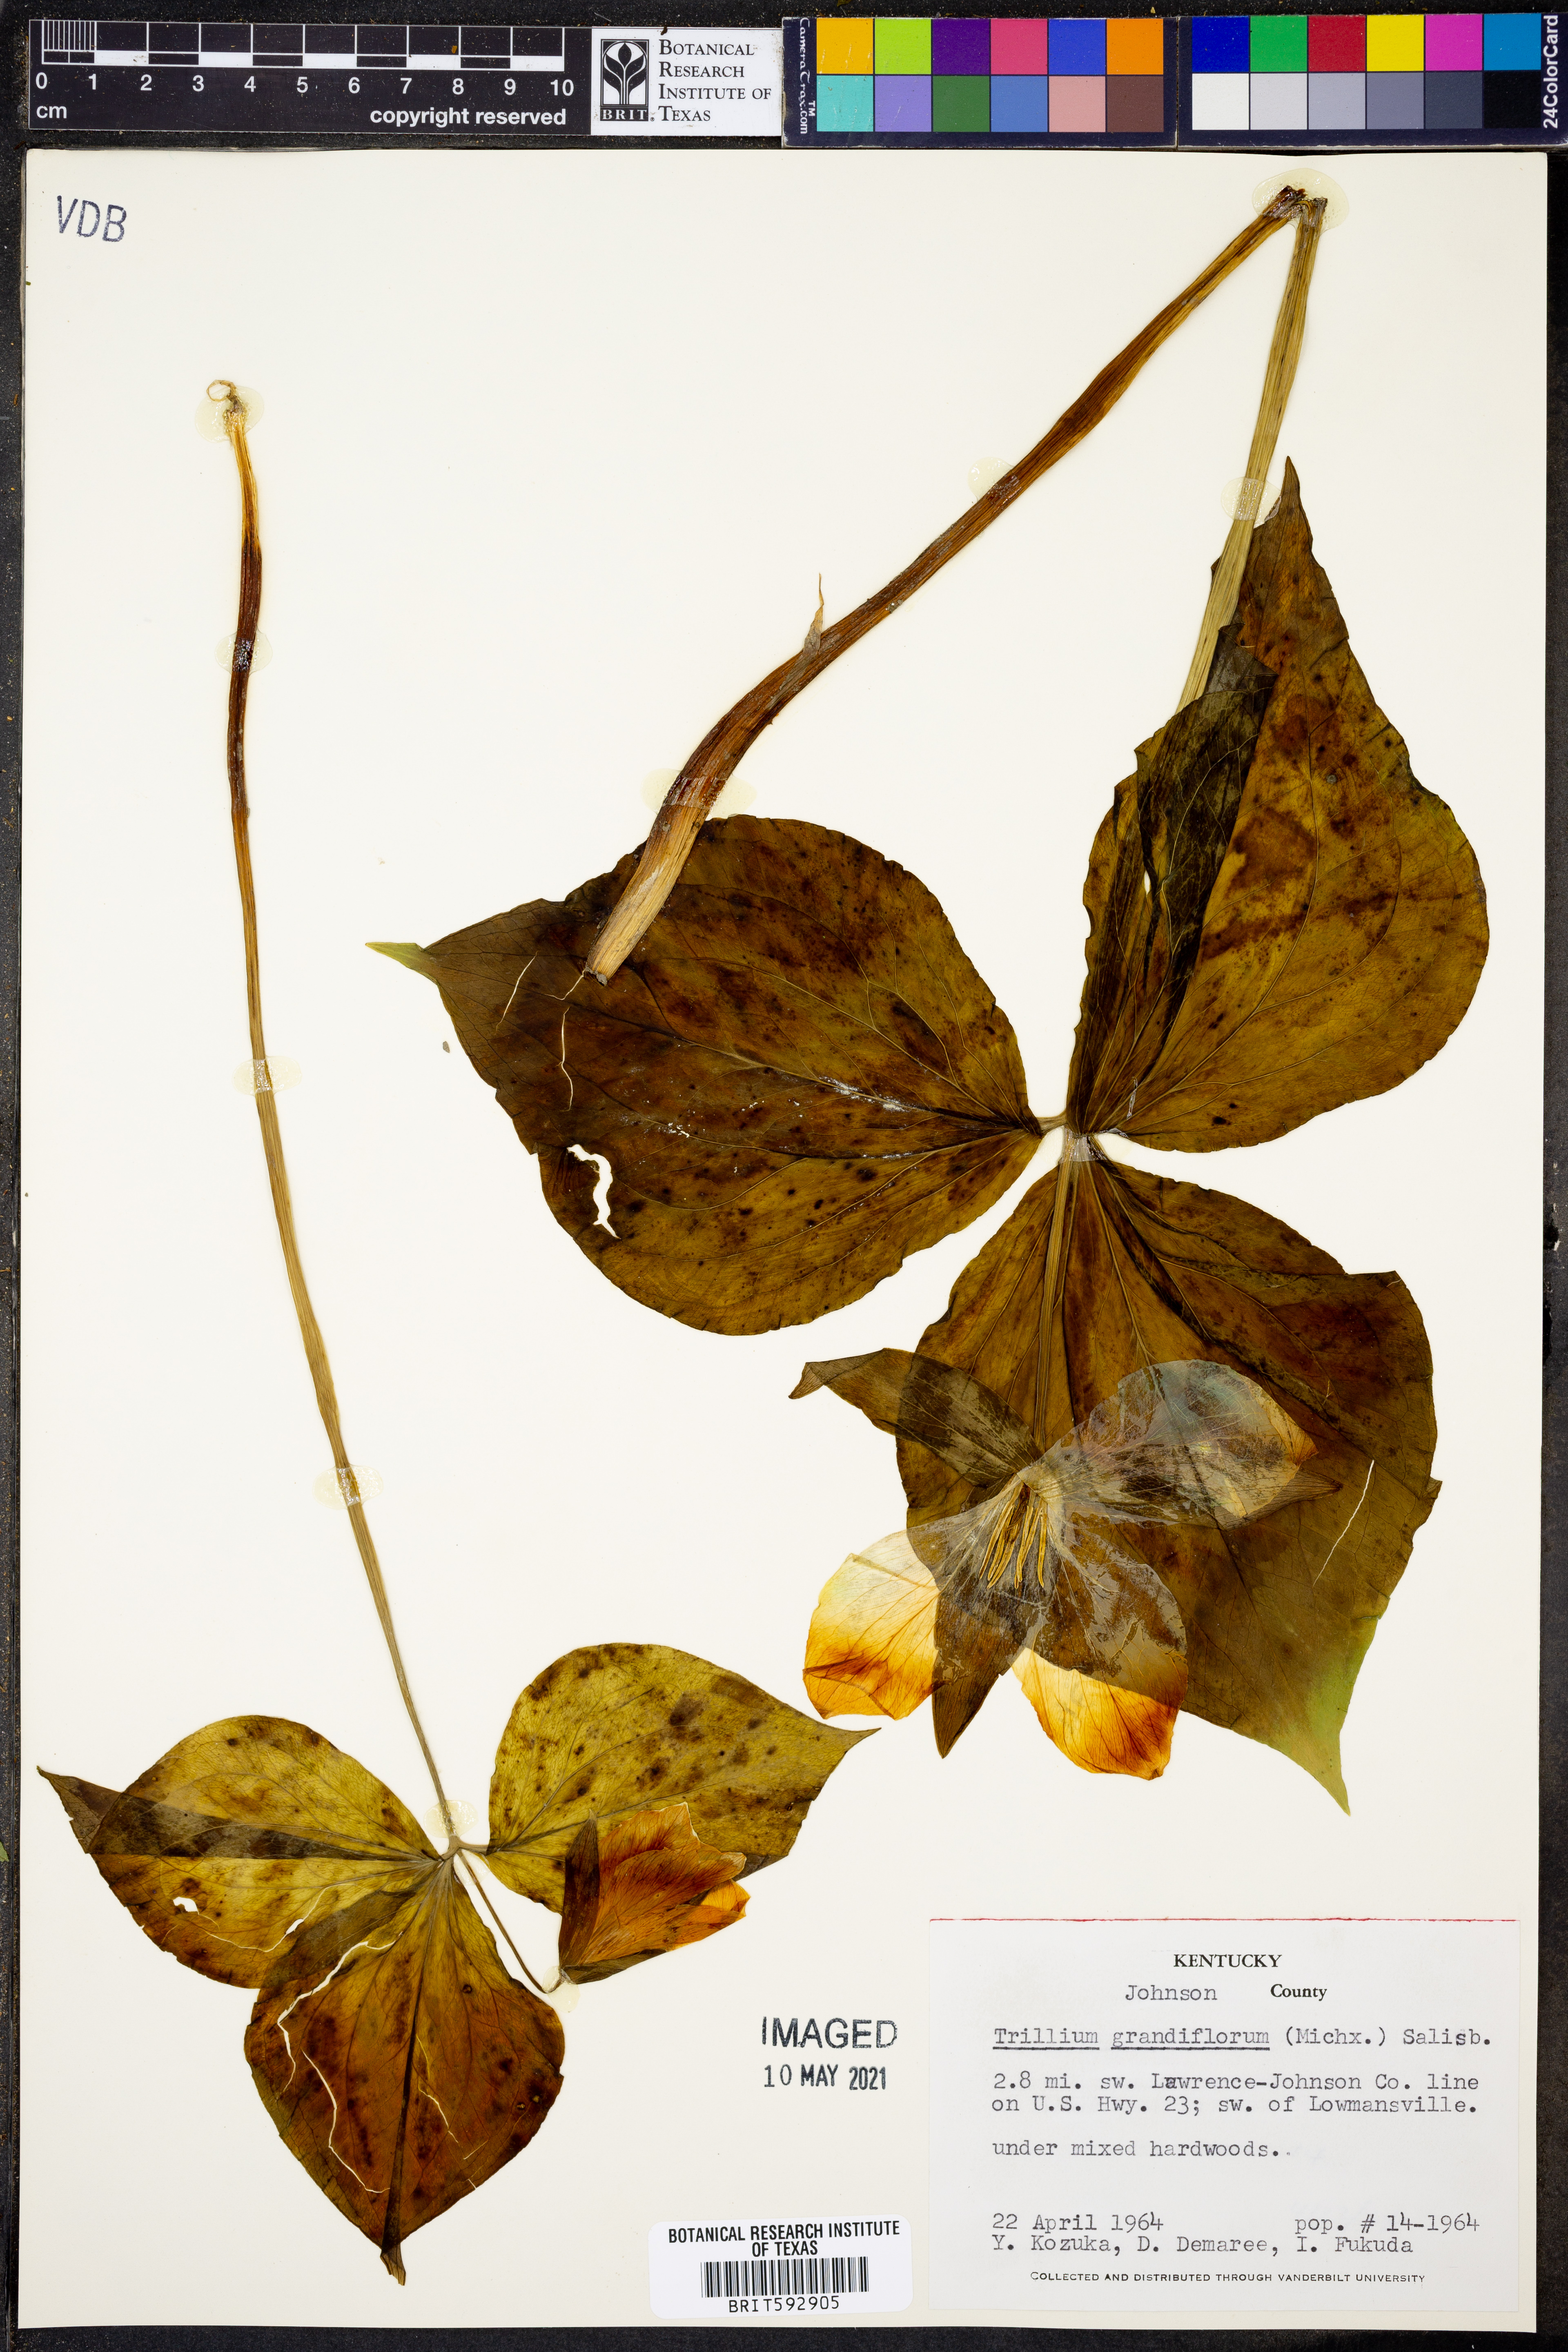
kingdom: Plantae
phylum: Tracheophyta
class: Liliopsida
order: Liliales
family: Melanthiaceae
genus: Trillium
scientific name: Trillium
